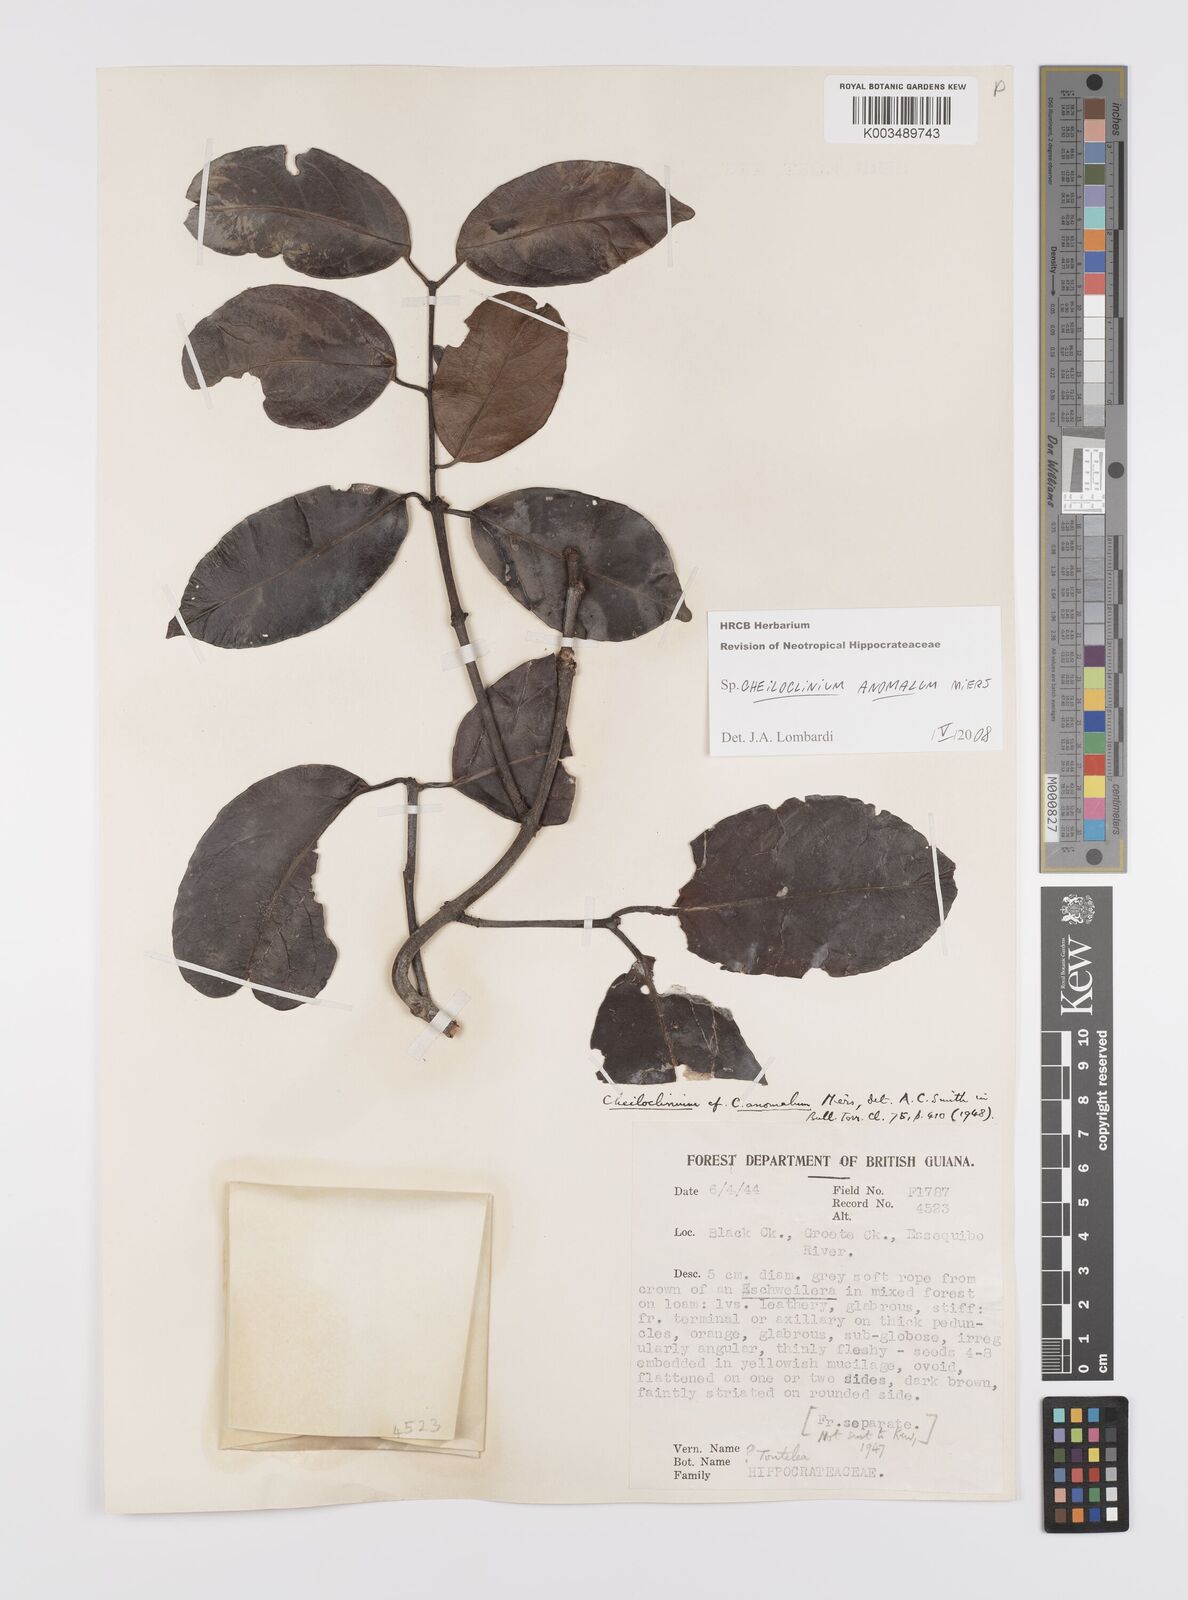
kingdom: Plantae
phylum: Tracheophyta
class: Magnoliopsida
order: Celastrales
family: Celastraceae
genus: Cheiloclinium
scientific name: Cheiloclinium anomalum
